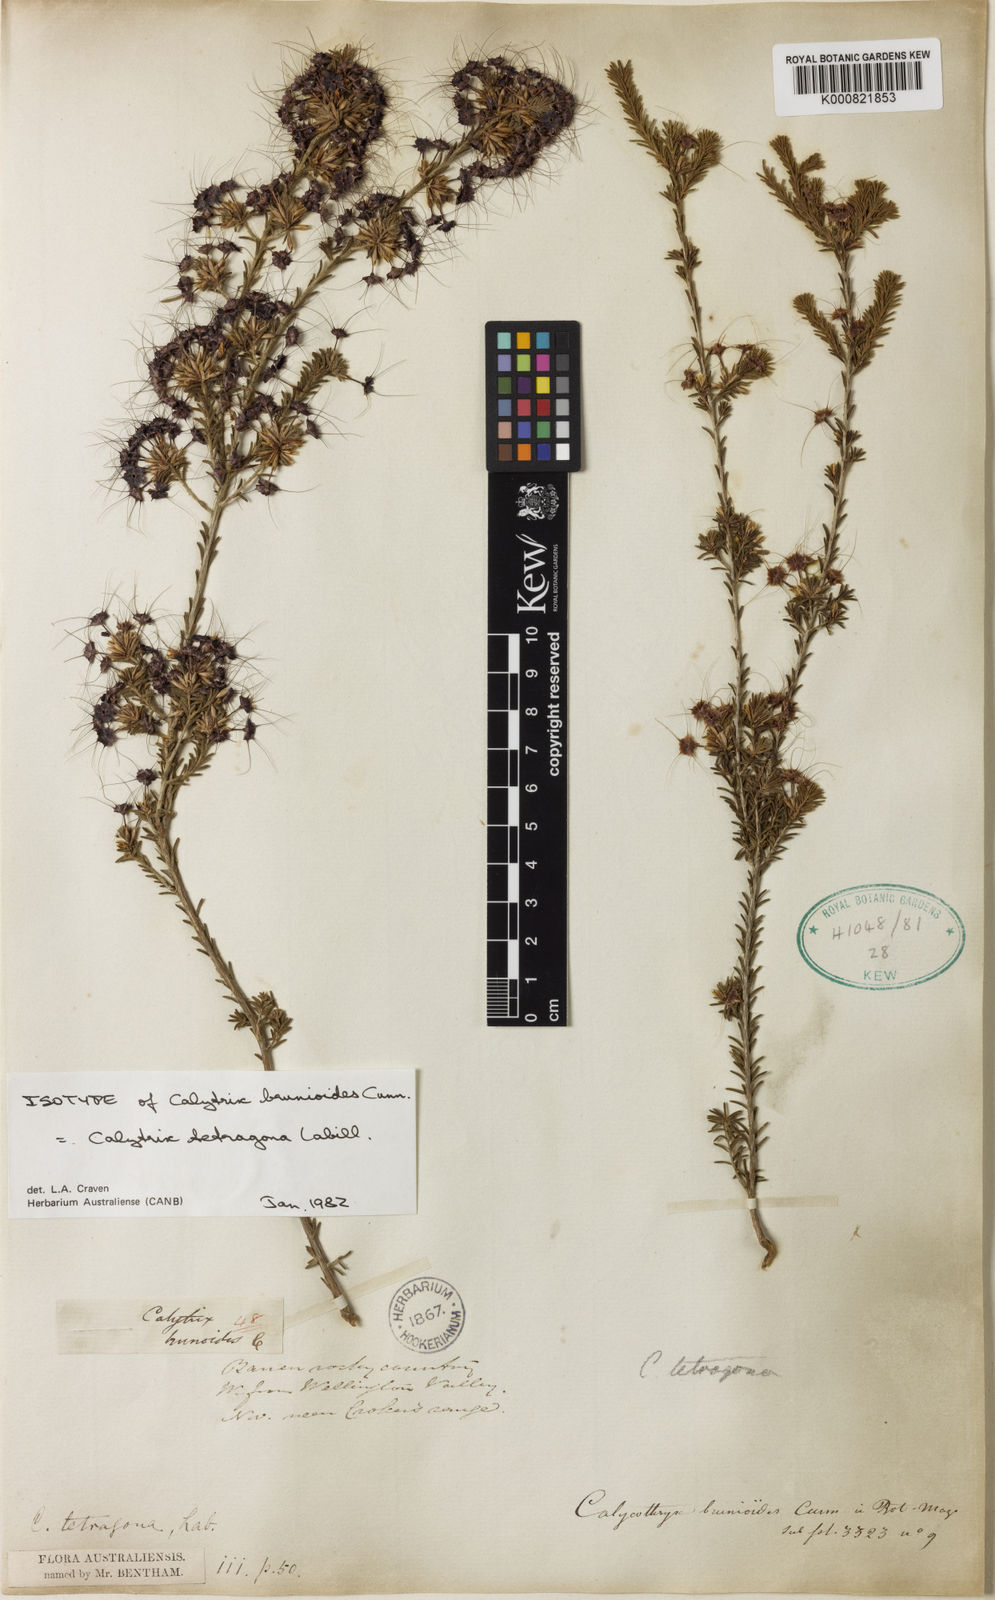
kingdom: Plantae
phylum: Tracheophyta
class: Magnoliopsida
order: Myrtales
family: Myrtaceae
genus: Calytrix
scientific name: Calytrix tetragona
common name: Common fringe myrtle
